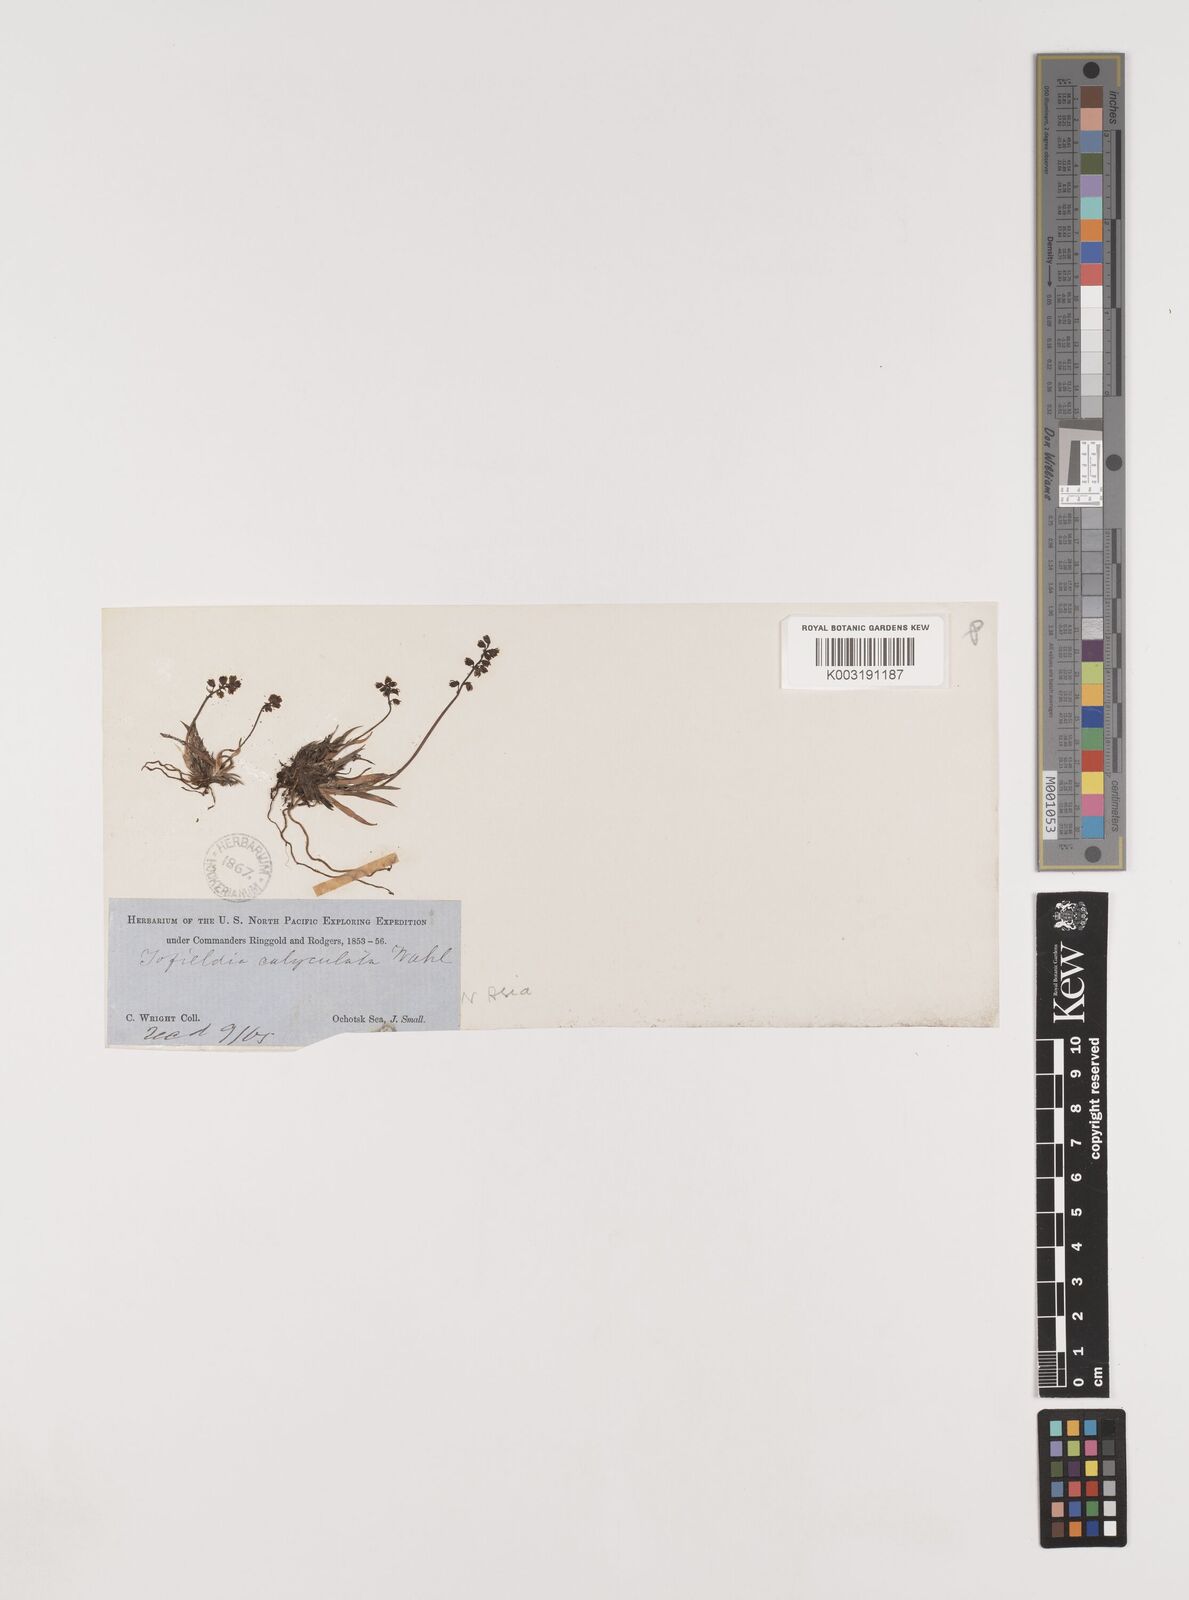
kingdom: Plantae
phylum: Tracheophyta
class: Liliopsida
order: Alismatales
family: Tofieldiaceae
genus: Tofieldia
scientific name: Tofieldia calyculata
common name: German-asphodel
